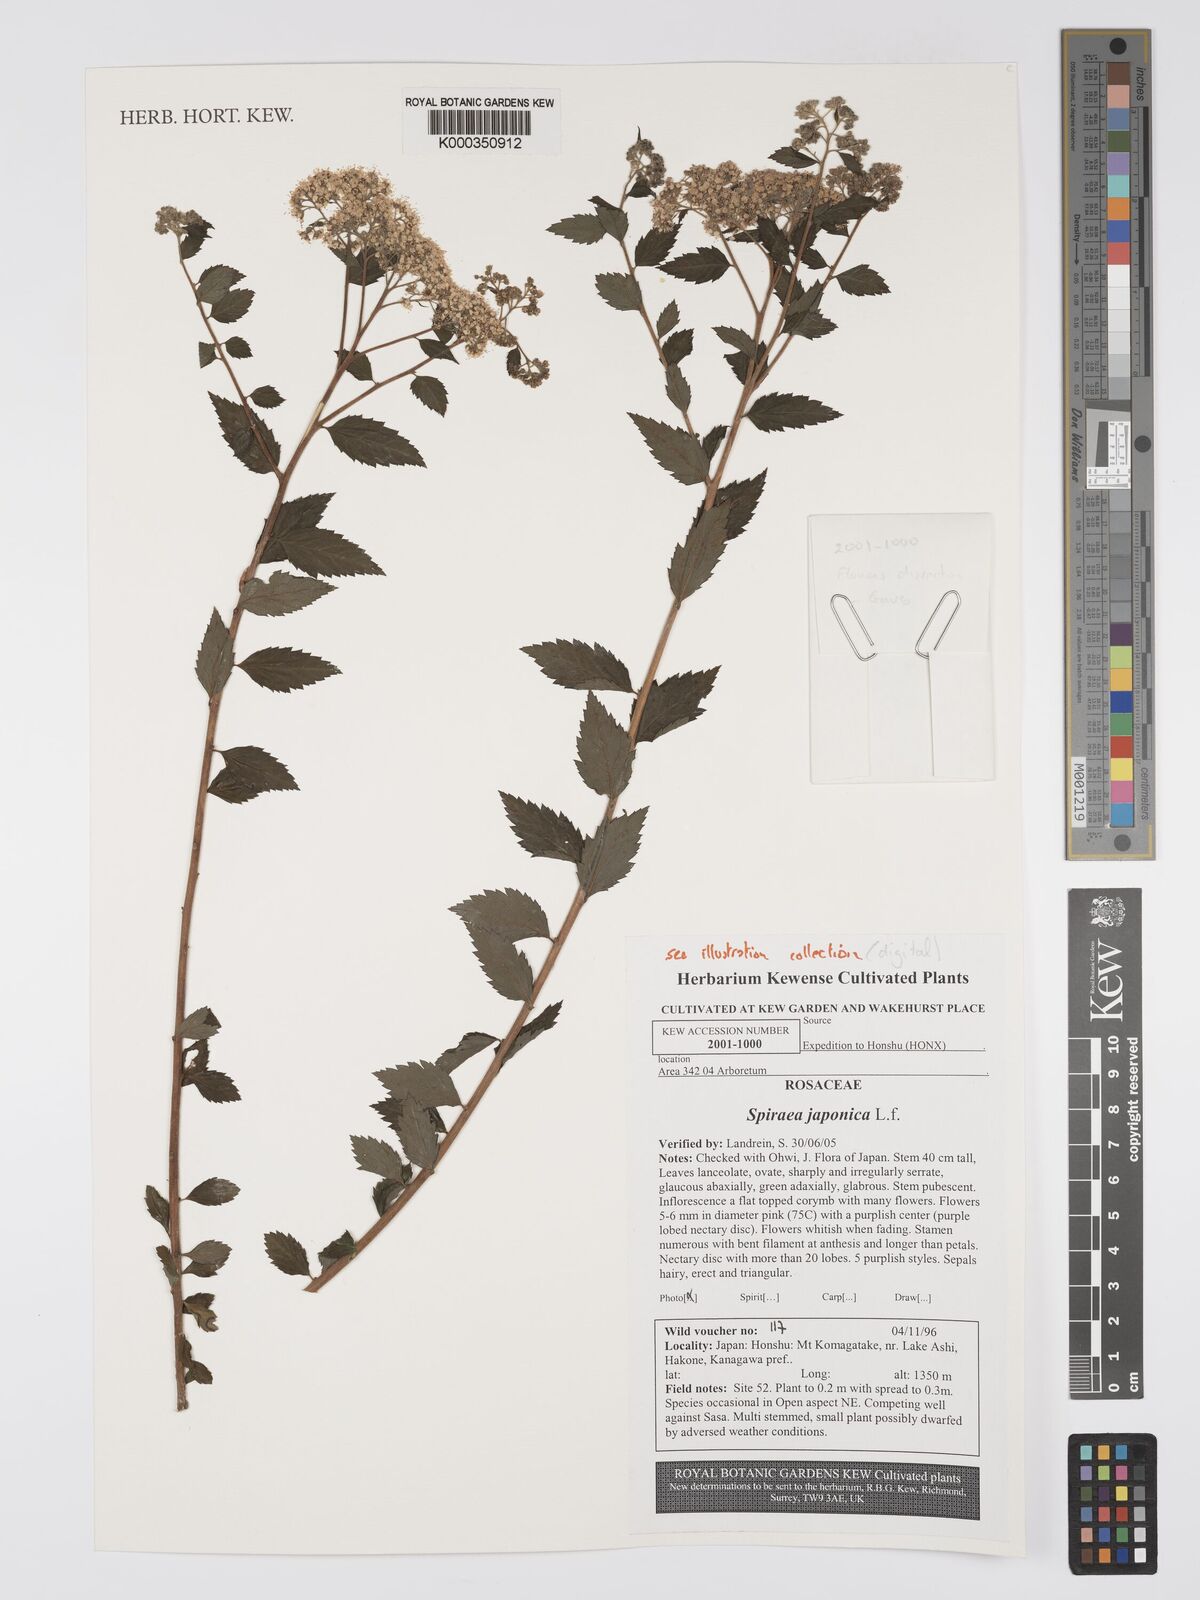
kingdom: Plantae
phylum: Tracheophyta
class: Magnoliopsida
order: Rosales
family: Rosaceae
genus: Spiraea
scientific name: Spiraea japonica
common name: Japanese spiraea
